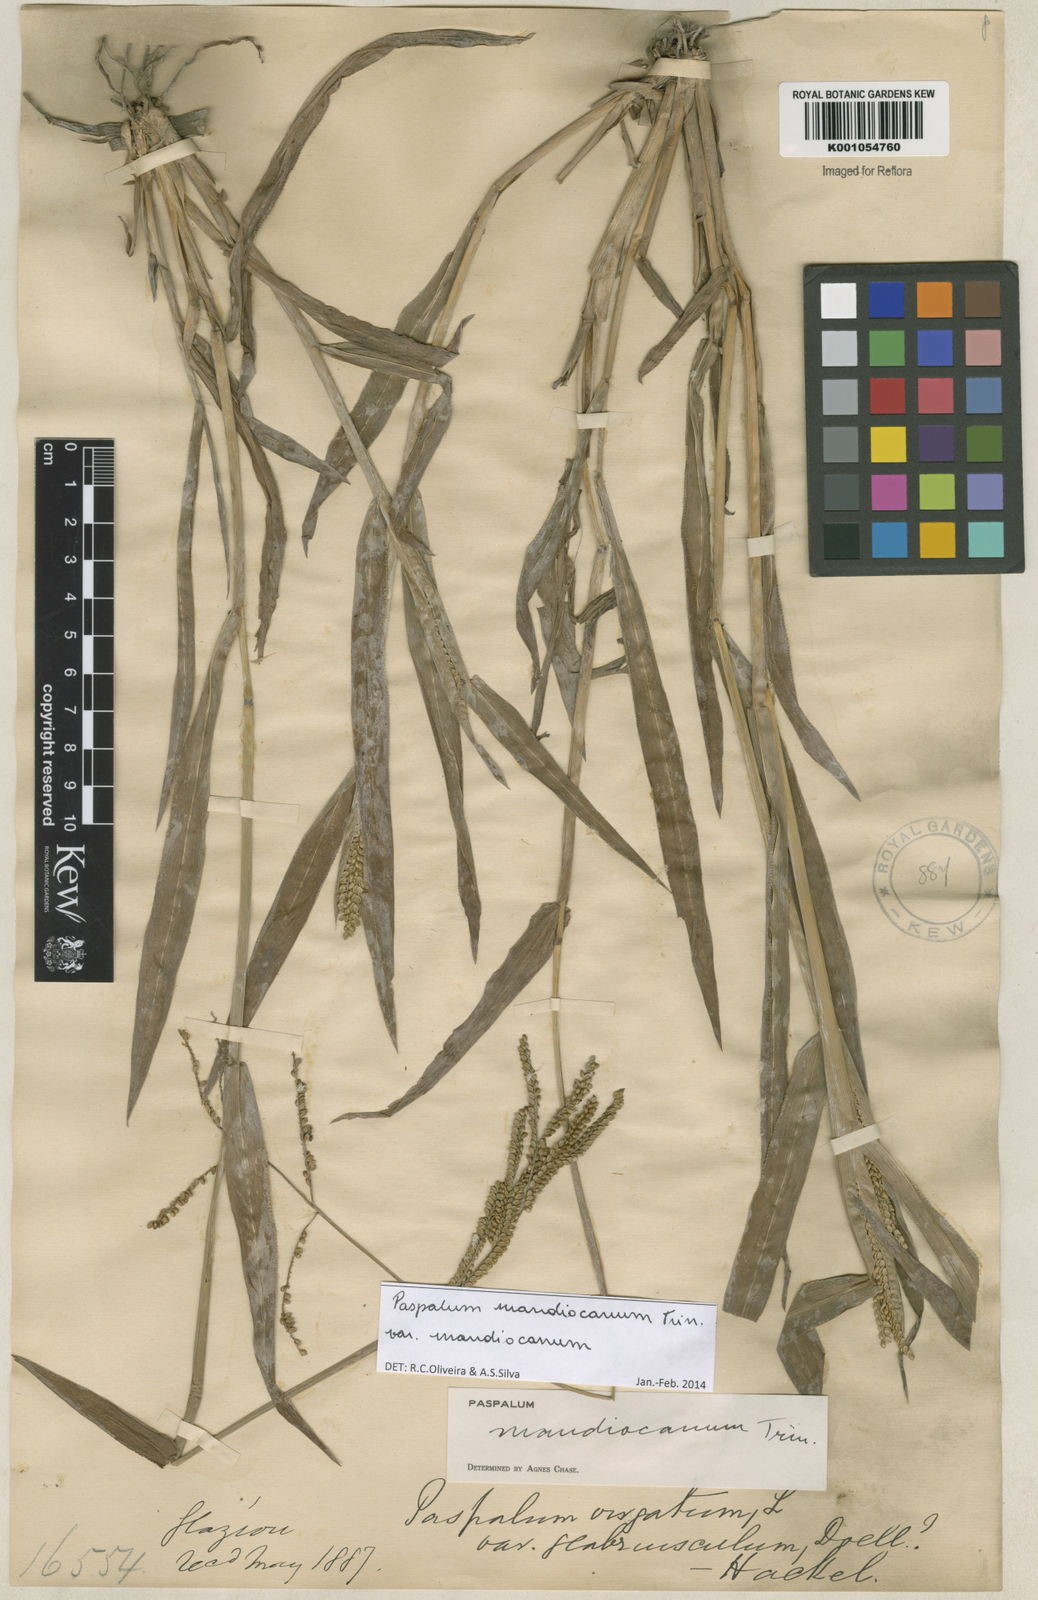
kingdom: Plantae
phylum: Tracheophyta
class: Liliopsida
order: Poales
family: Poaceae
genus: Paspalum
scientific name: Paspalum mandiocanum
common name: Paspalum
